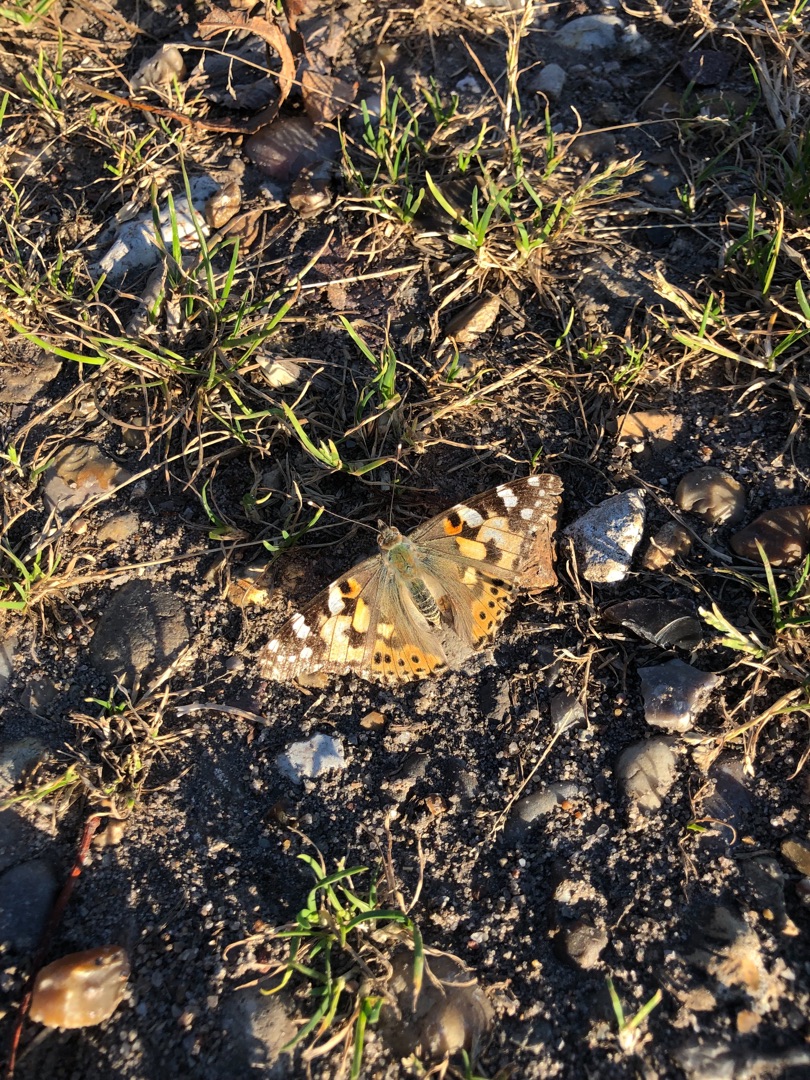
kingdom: Animalia
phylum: Arthropoda
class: Insecta
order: Lepidoptera
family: Nymphalidae
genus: Vanessa
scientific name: Vanessa cardui
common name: Tidselsommerfugl
